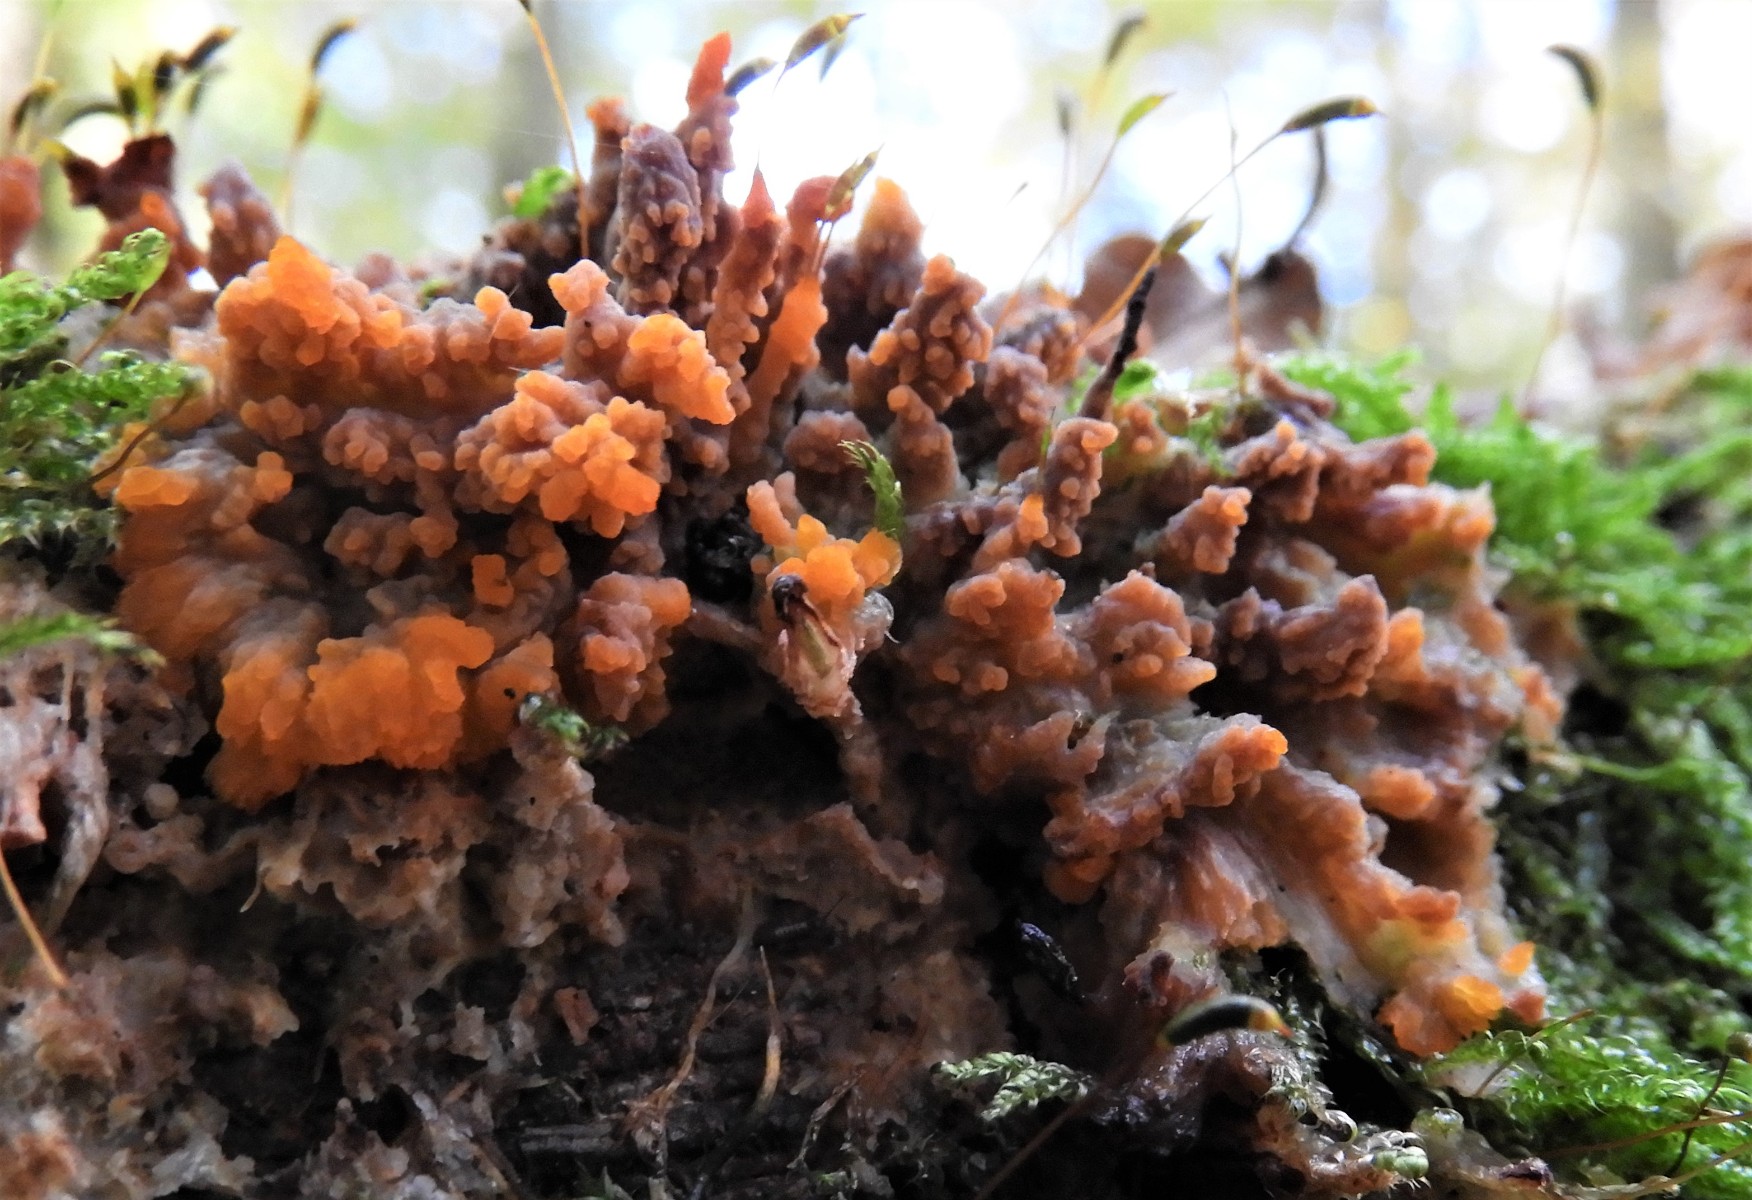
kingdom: Fungi
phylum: Basidiomycota
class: Agaricomycetes
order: Polyporales
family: Meruliaceae
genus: Phlebia
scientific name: Phlebia radiata
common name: stråle-åresvamp
